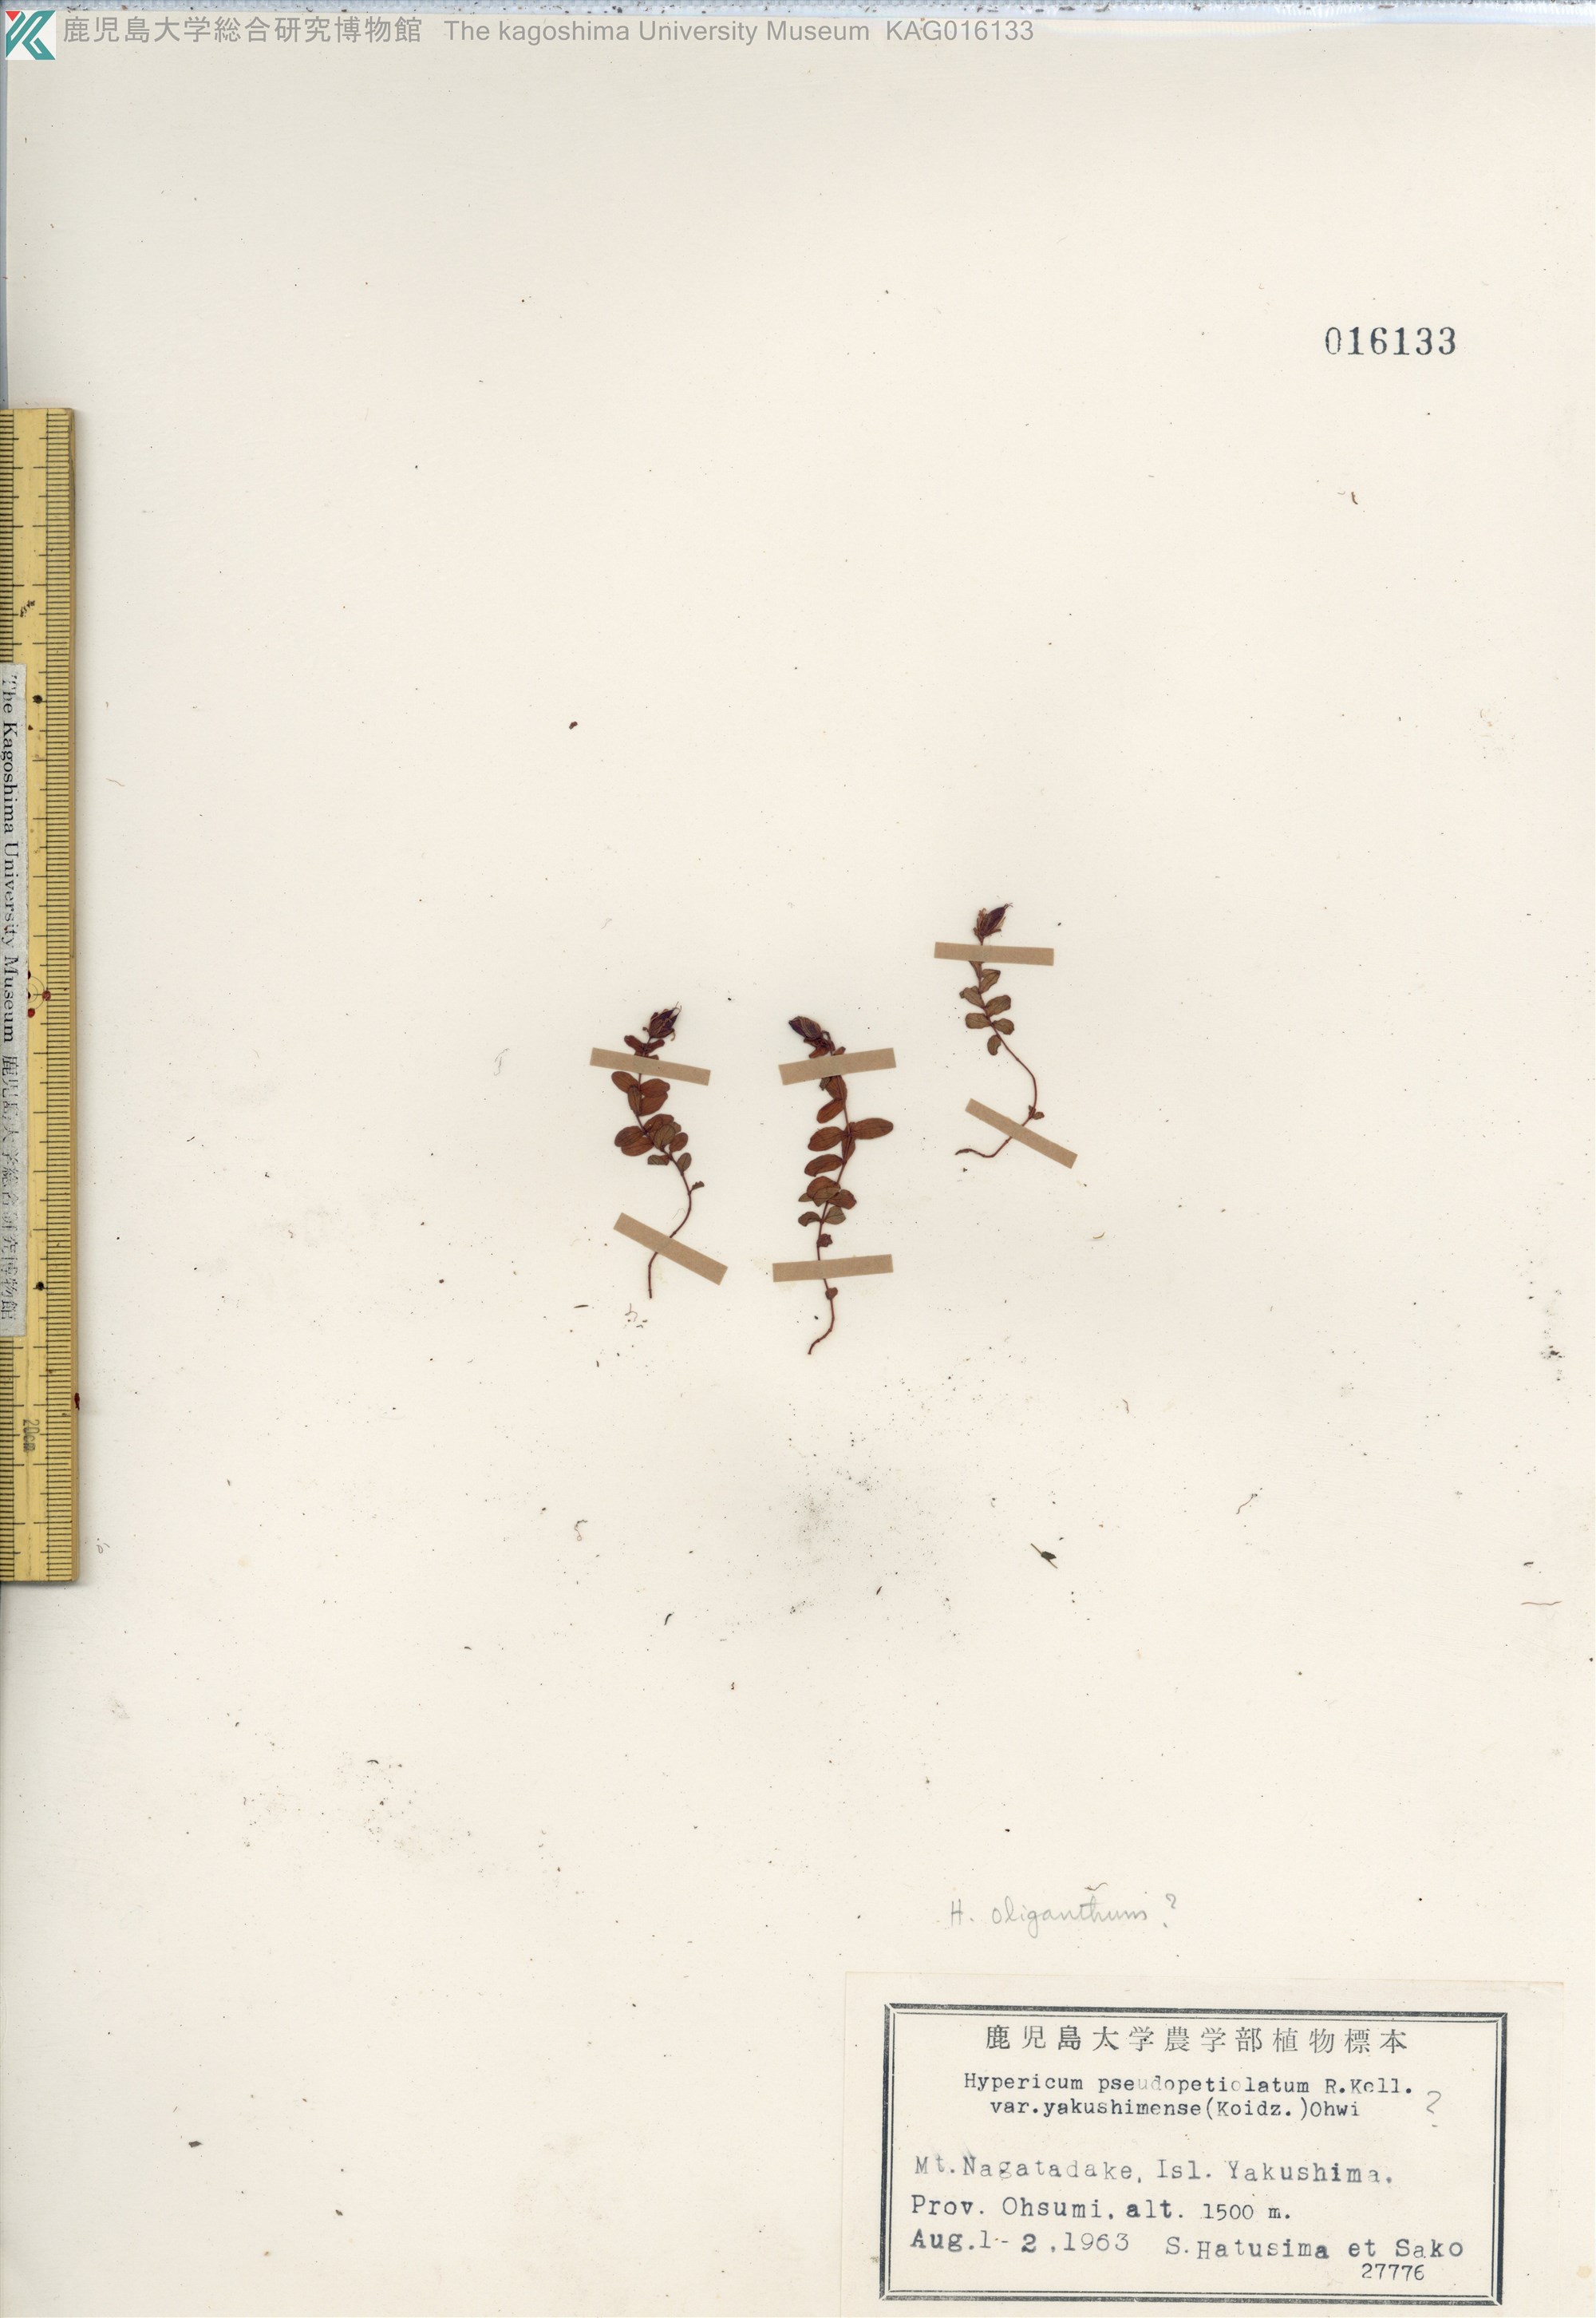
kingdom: Plantae
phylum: Tracheophyta
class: Magnoliopsida
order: Malpighiales
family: Hypericaceae
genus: Hypericum
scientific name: Hypericum pseudopetiolatum
